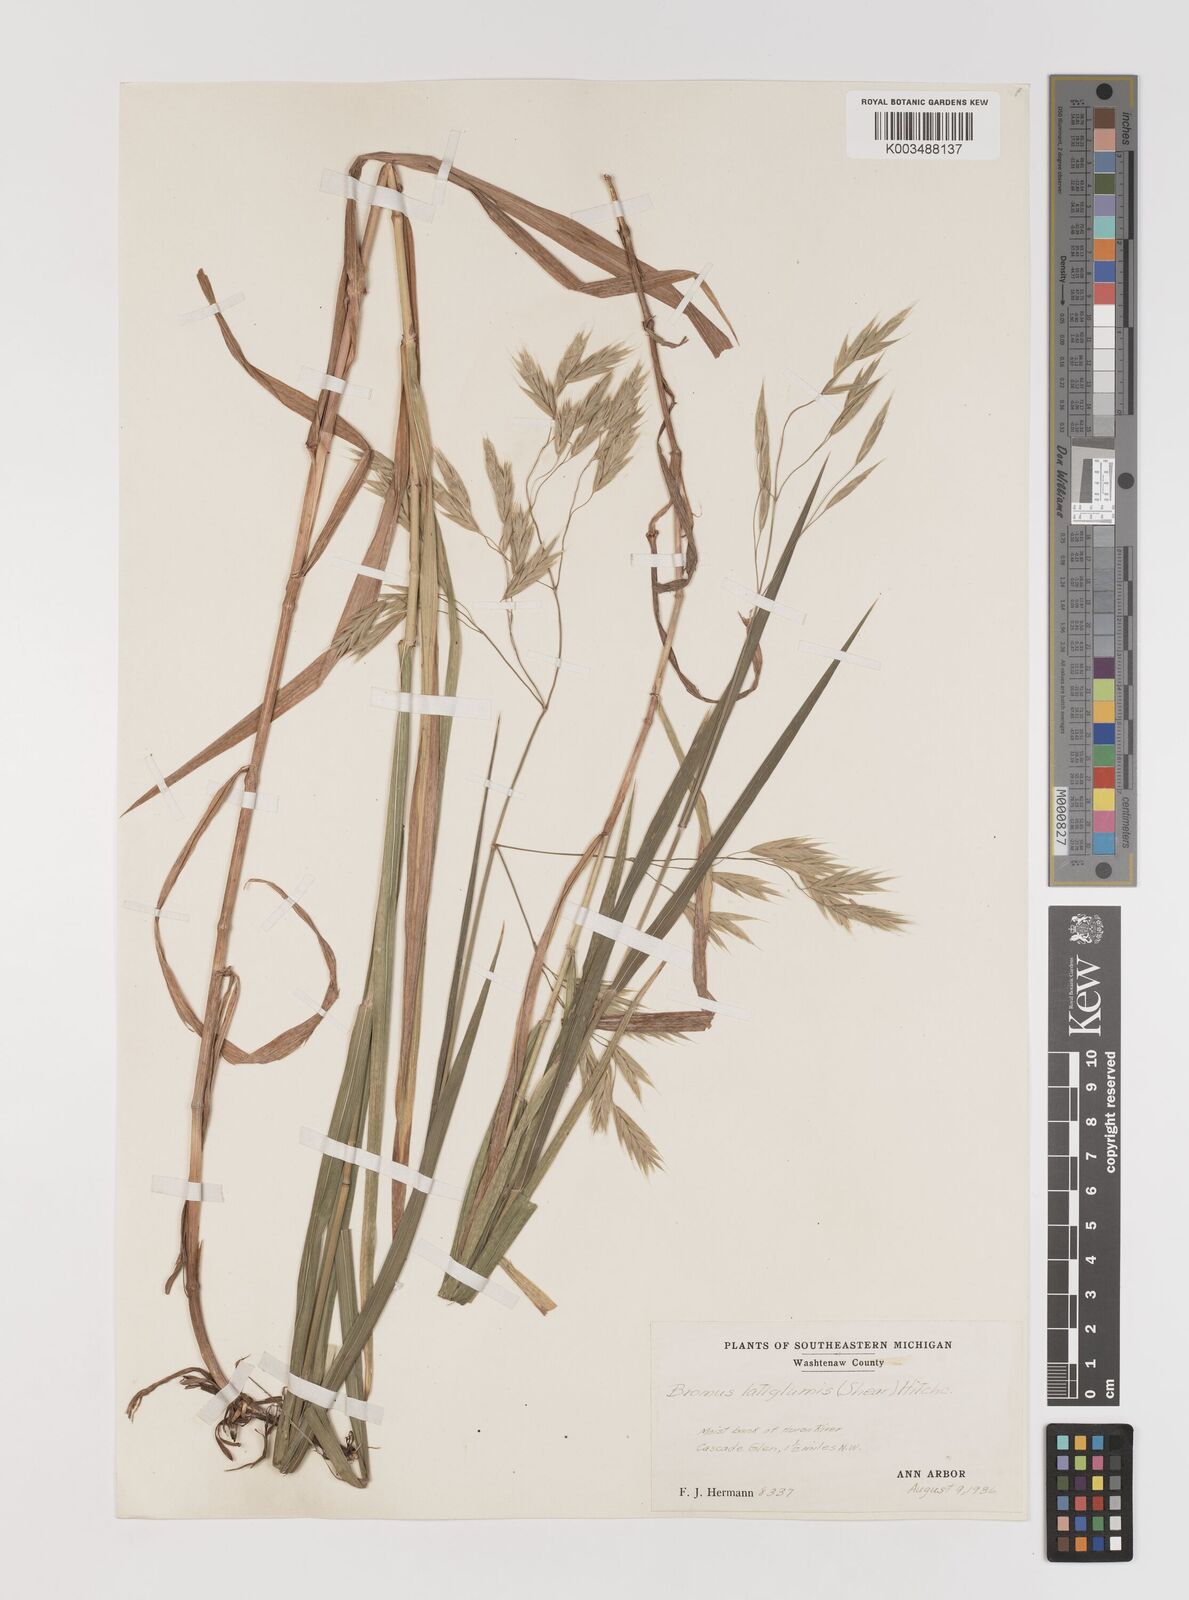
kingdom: Plantae
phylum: Tracheophyta
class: Liliopsida
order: Poales
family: Poaceae
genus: Bromus
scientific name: Bromus latiglumis
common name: Broad-glumed brome
